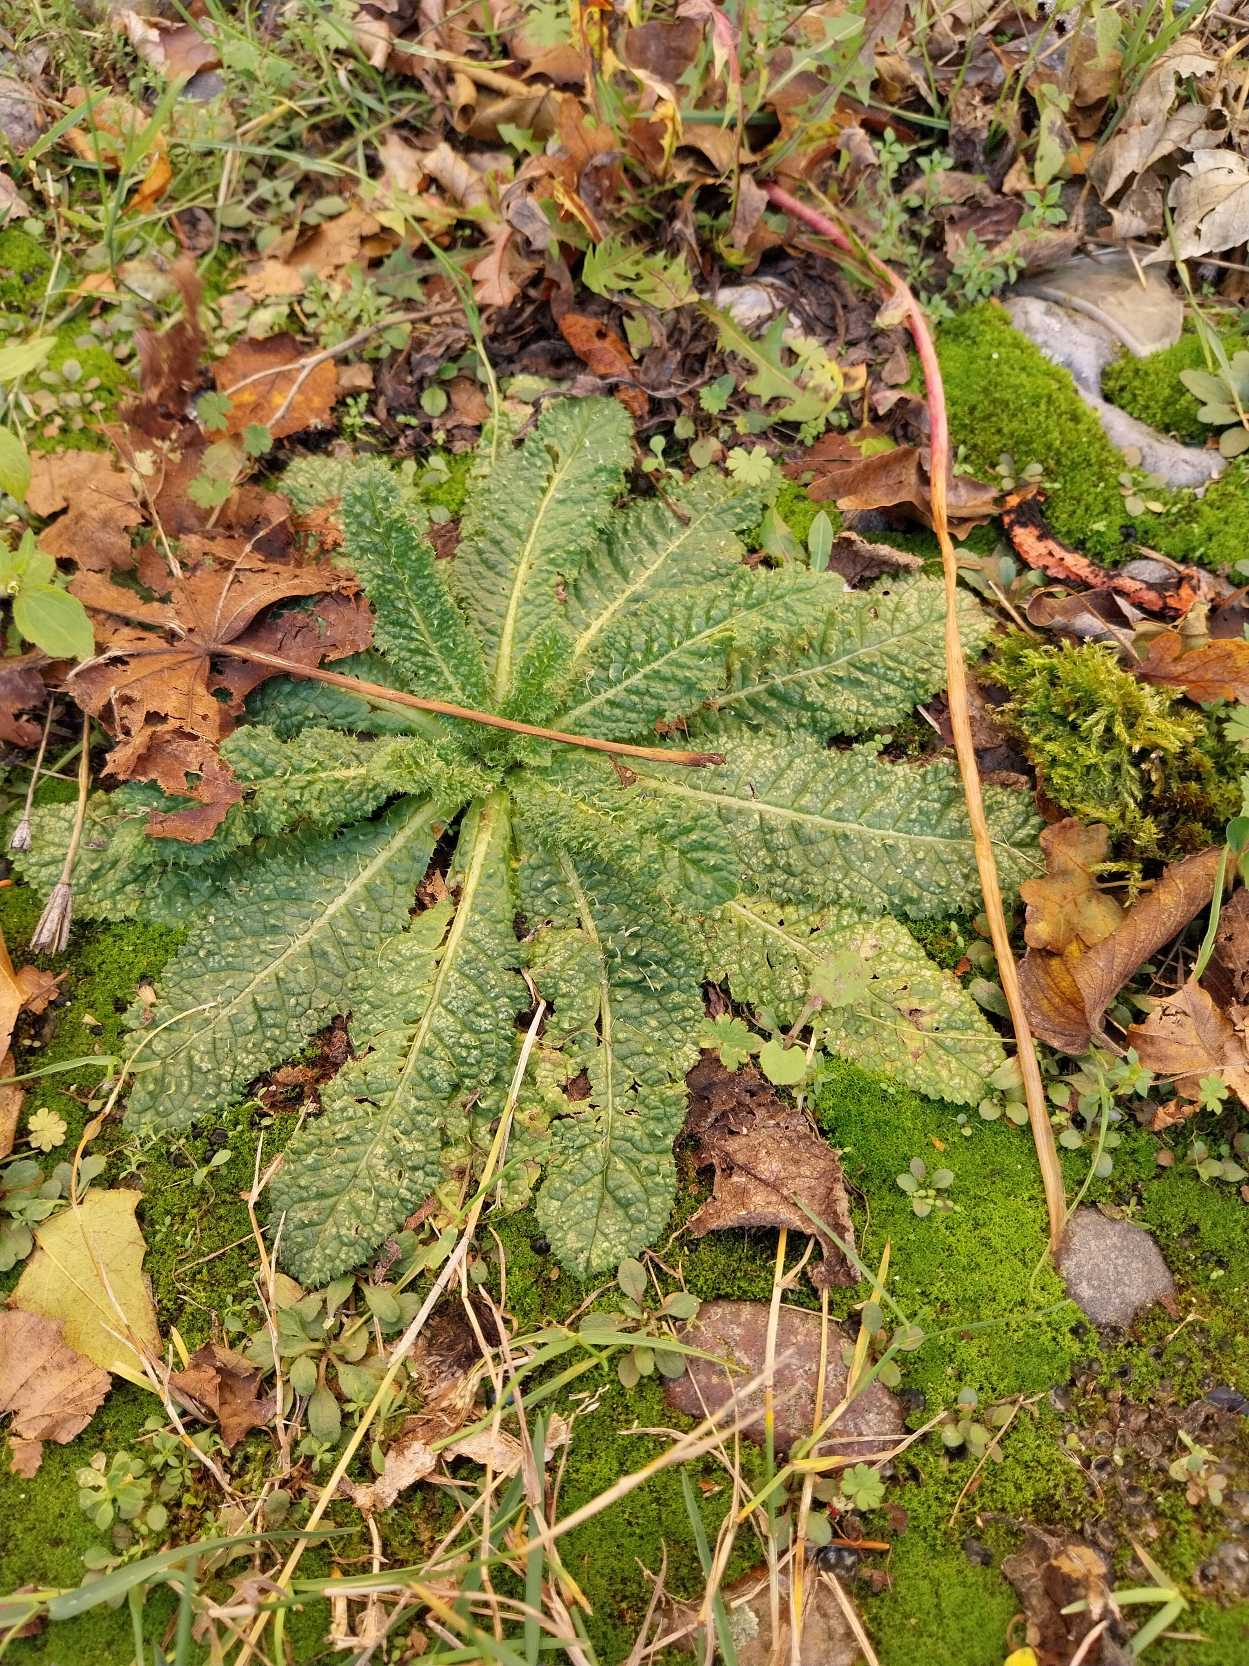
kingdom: Plantae
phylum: Tracheophyta
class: Magnoliopsida
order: Dipsacales
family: Caprifoliaceae
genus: Dipsacus
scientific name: Dipsacus fullonum
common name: Gærde-kartebolle
